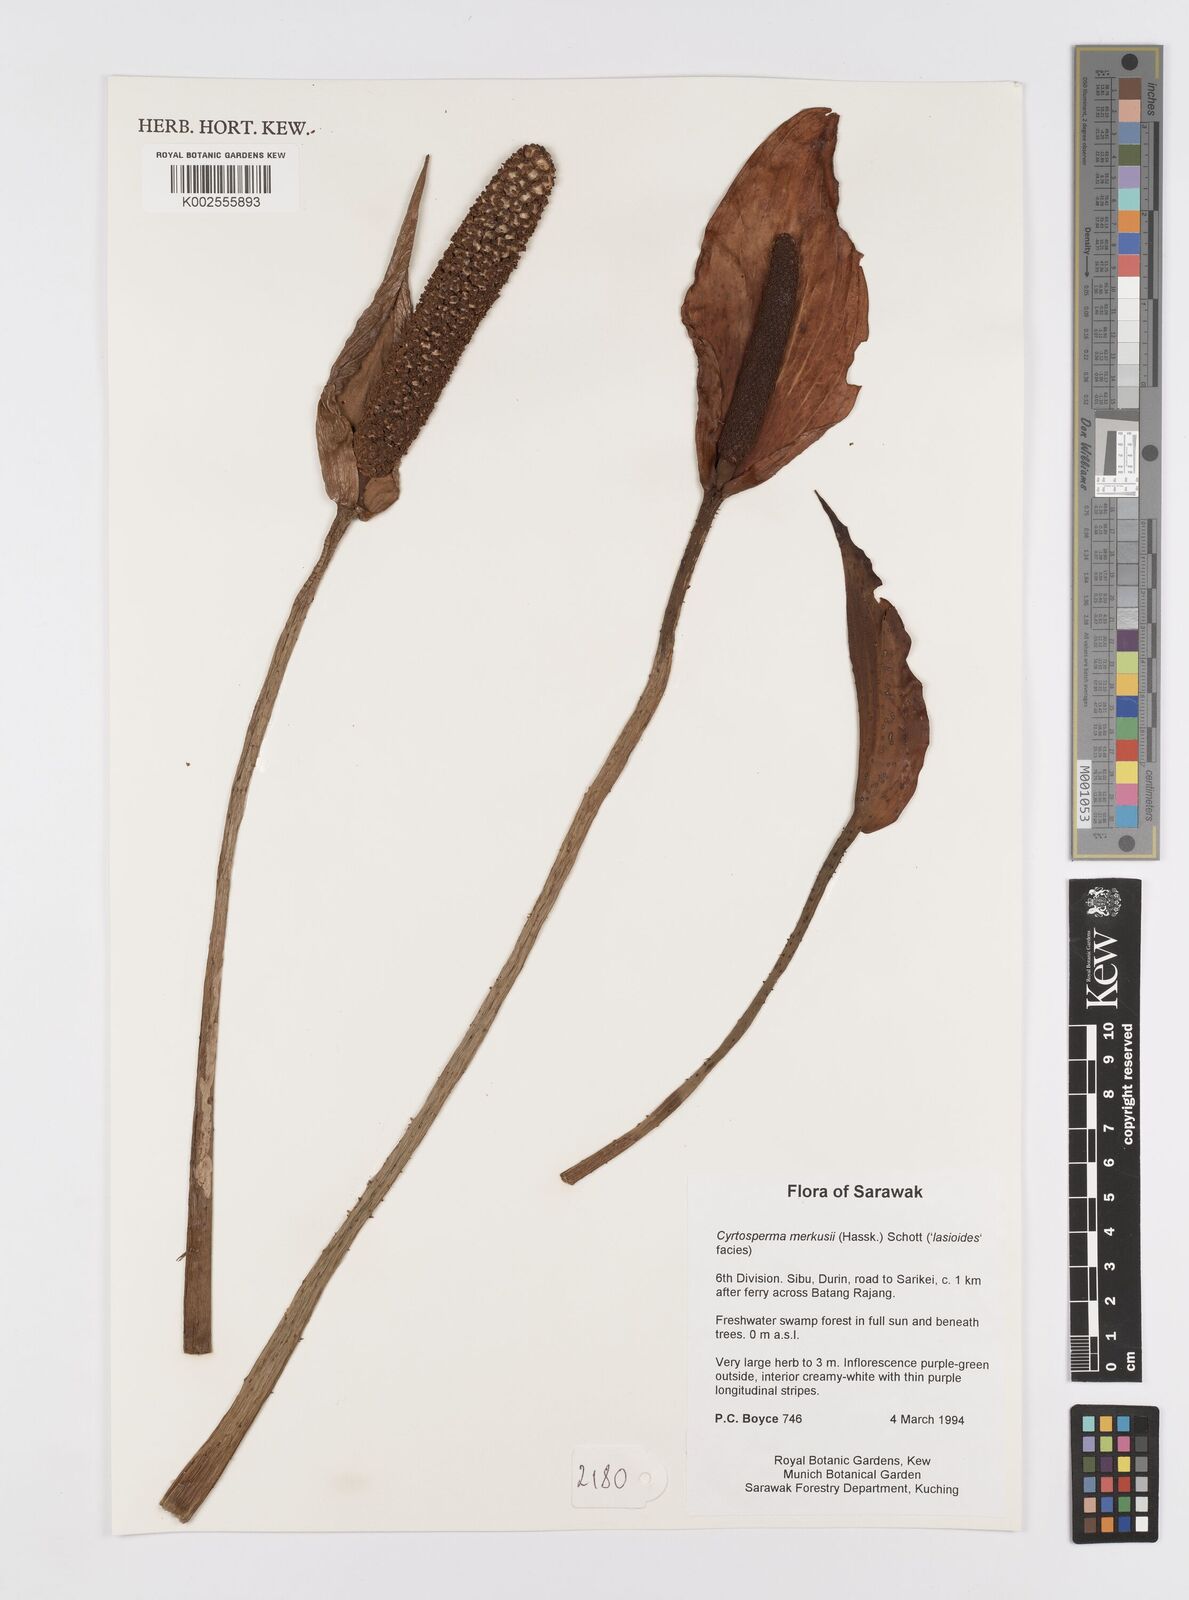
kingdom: Plantae
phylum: Tracheophyta
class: Liliopsida
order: Alismatales
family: Araceae
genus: Cyrtosperma
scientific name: Cyrtosperma merkusii
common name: Giant swamp-taro
